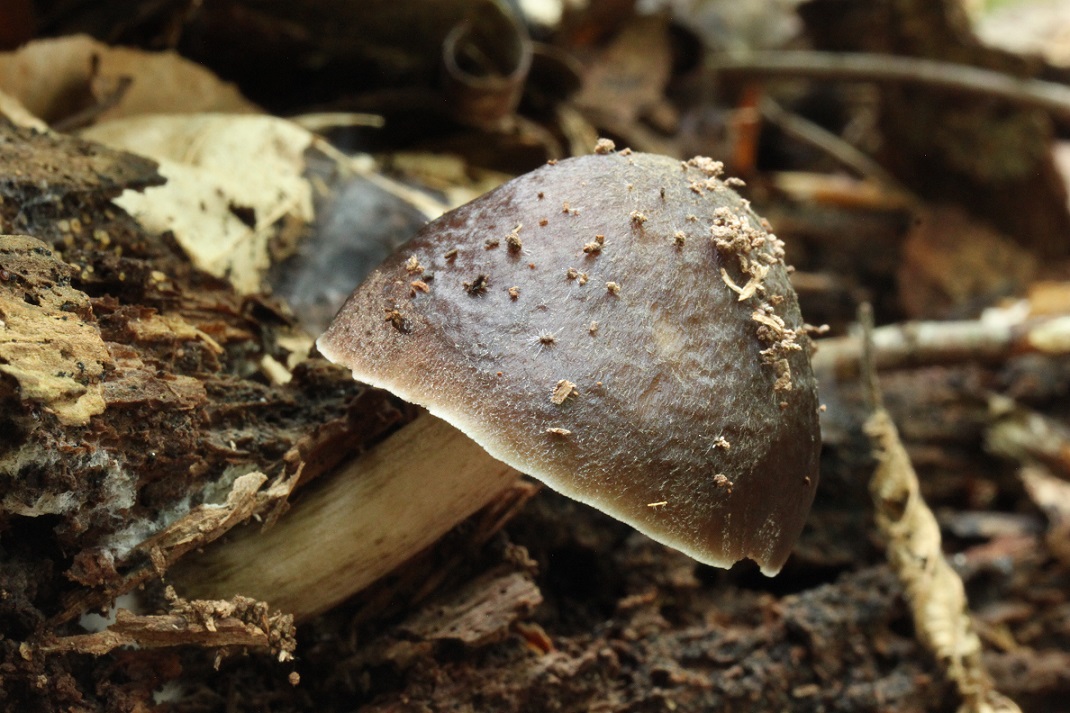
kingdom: Fungi
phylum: Basidiomycota
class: Agaricomycetes
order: Agaricales
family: Pluteaceae
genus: Pluteus
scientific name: Pluteus cervinus
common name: sodfarvet skærmhat
